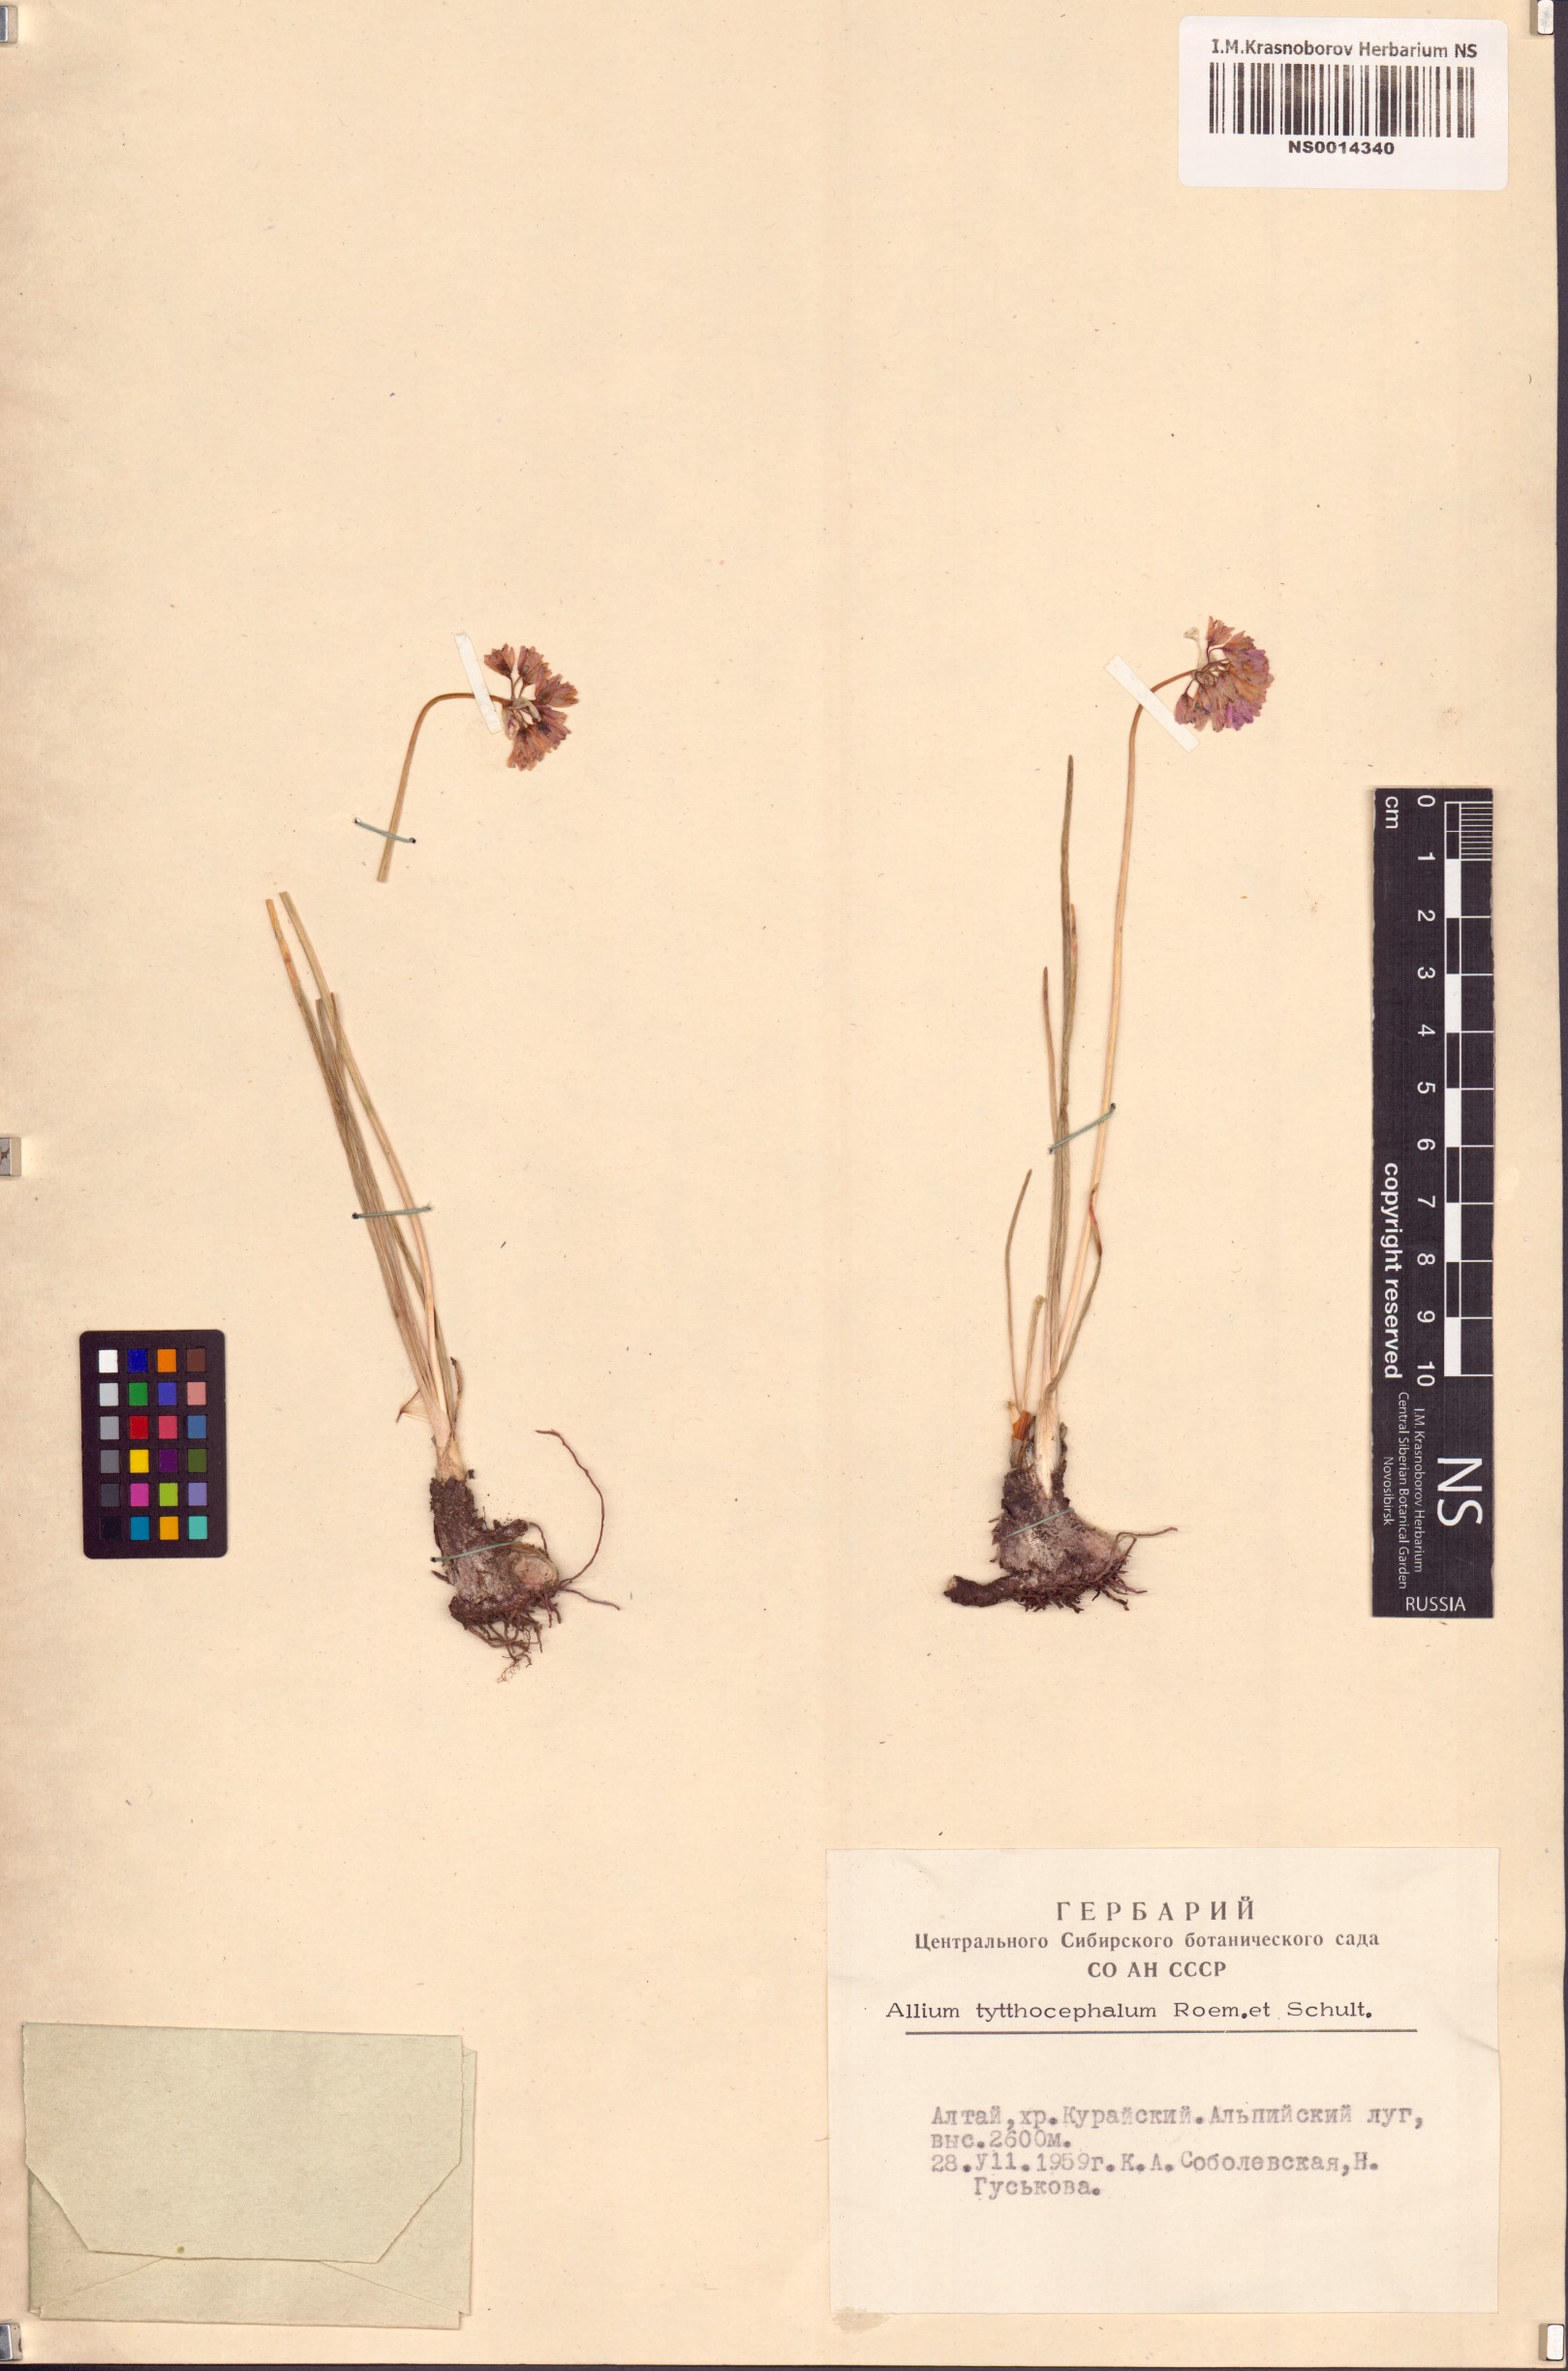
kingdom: Plantae
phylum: Tracheophyta
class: Liliopsida
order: Asparagales
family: Amaryllidaceae
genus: Allium
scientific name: Allium tytthocephalum
